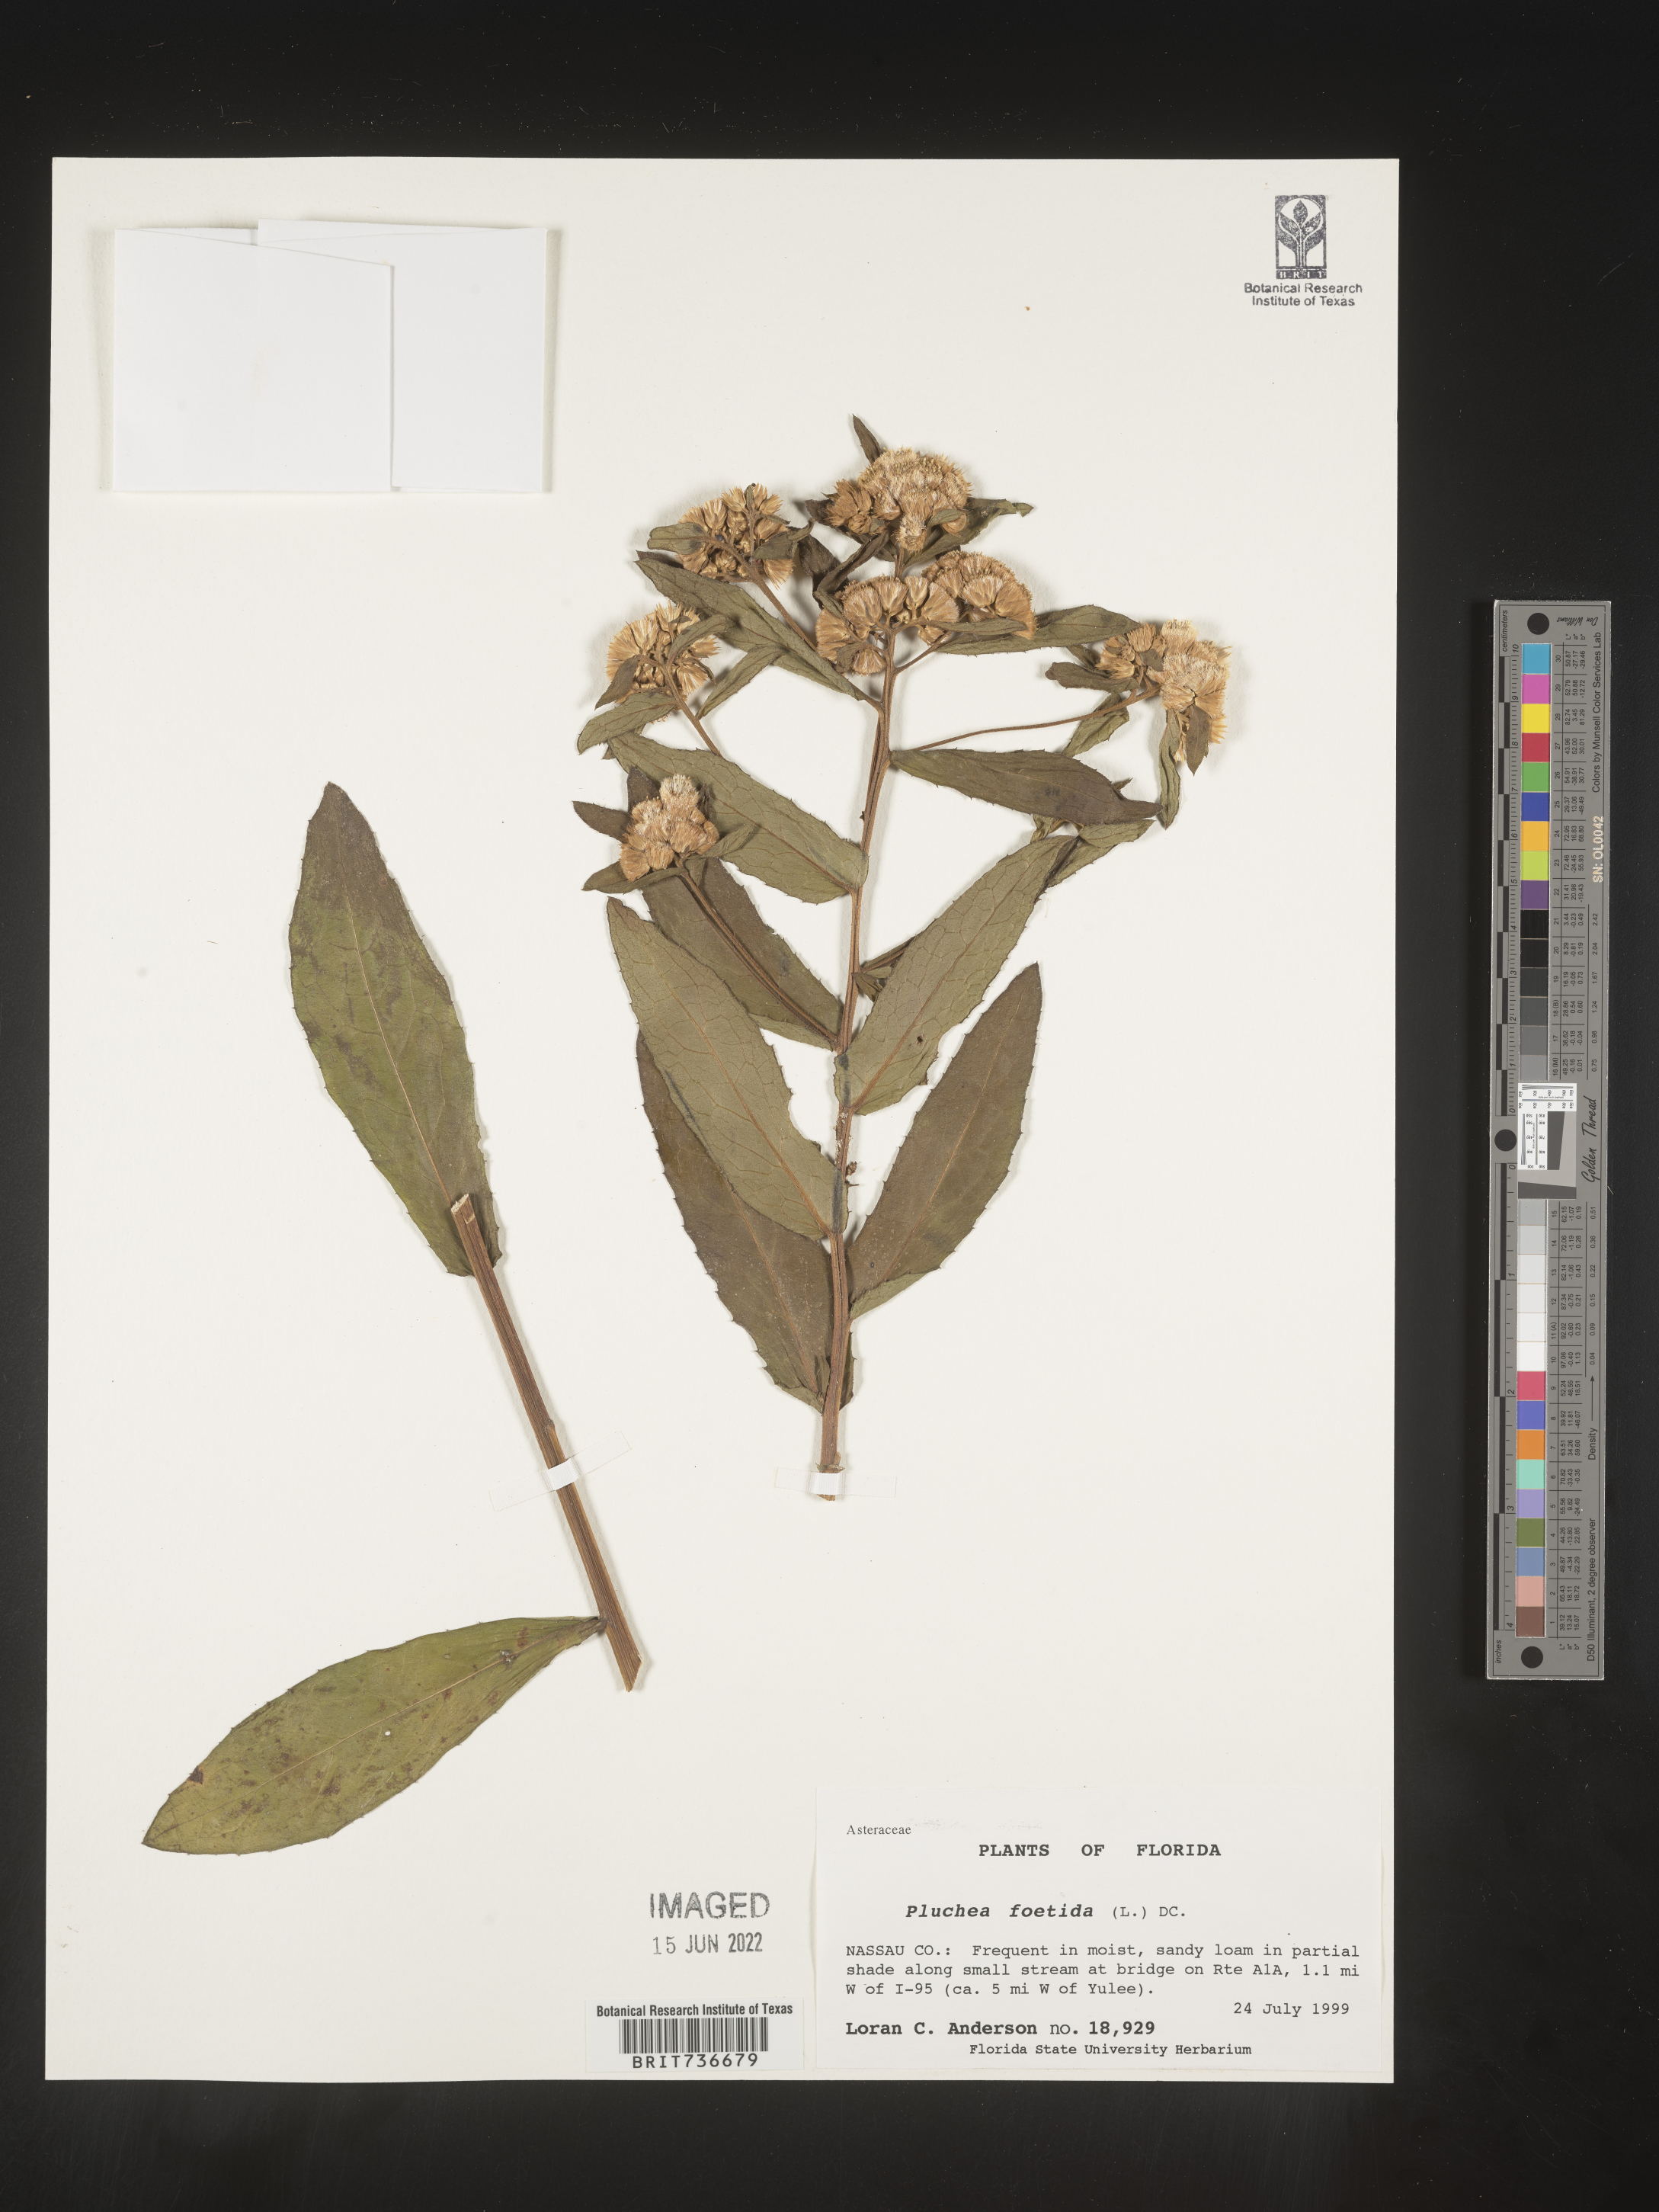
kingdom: Plantae
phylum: Tracheophyta
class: Magnoliopsida
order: Asterales
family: Asteraceae
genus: Pluchea
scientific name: Pluchea foetida
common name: Stinking camphorweed
